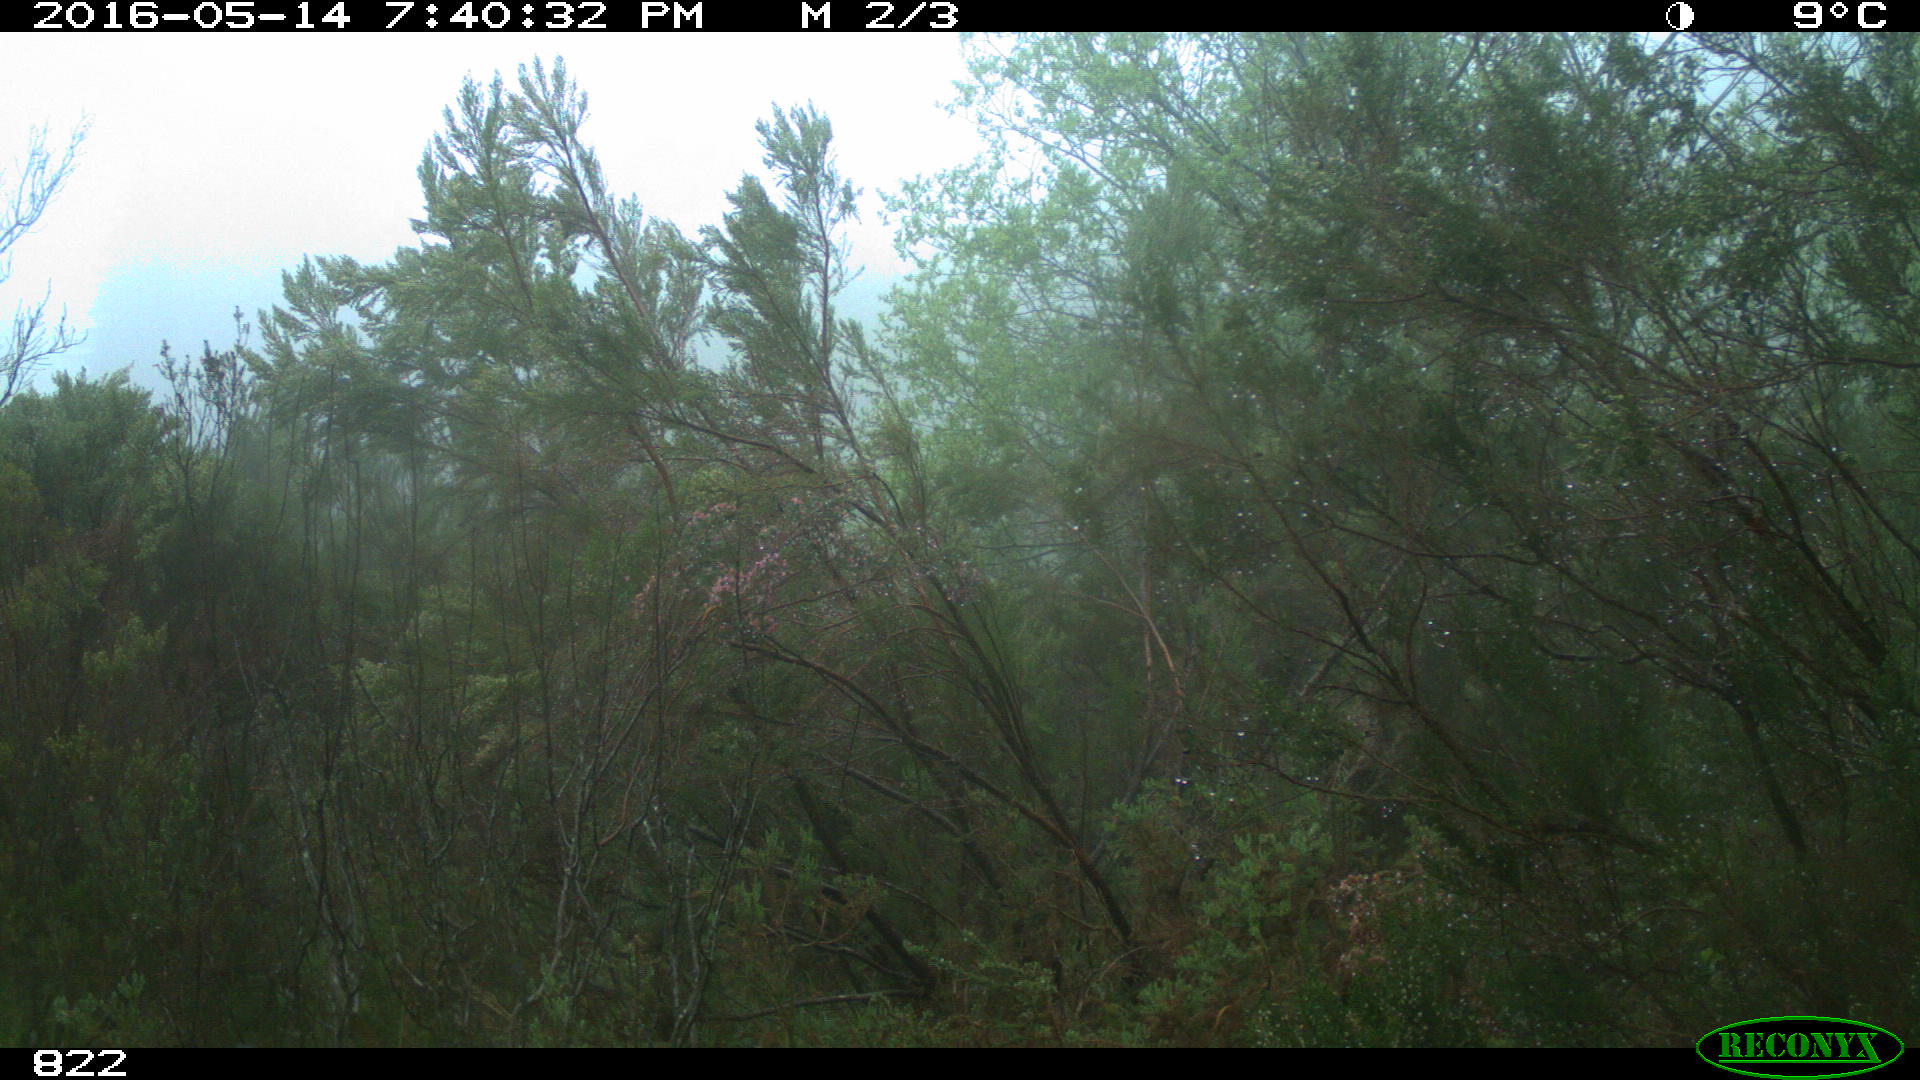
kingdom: Animalia
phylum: Chordata
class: Mammalia
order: Artiodactyla
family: Cervidae
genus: Capreolus
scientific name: Capreolus capreolus
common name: Western roe deer
